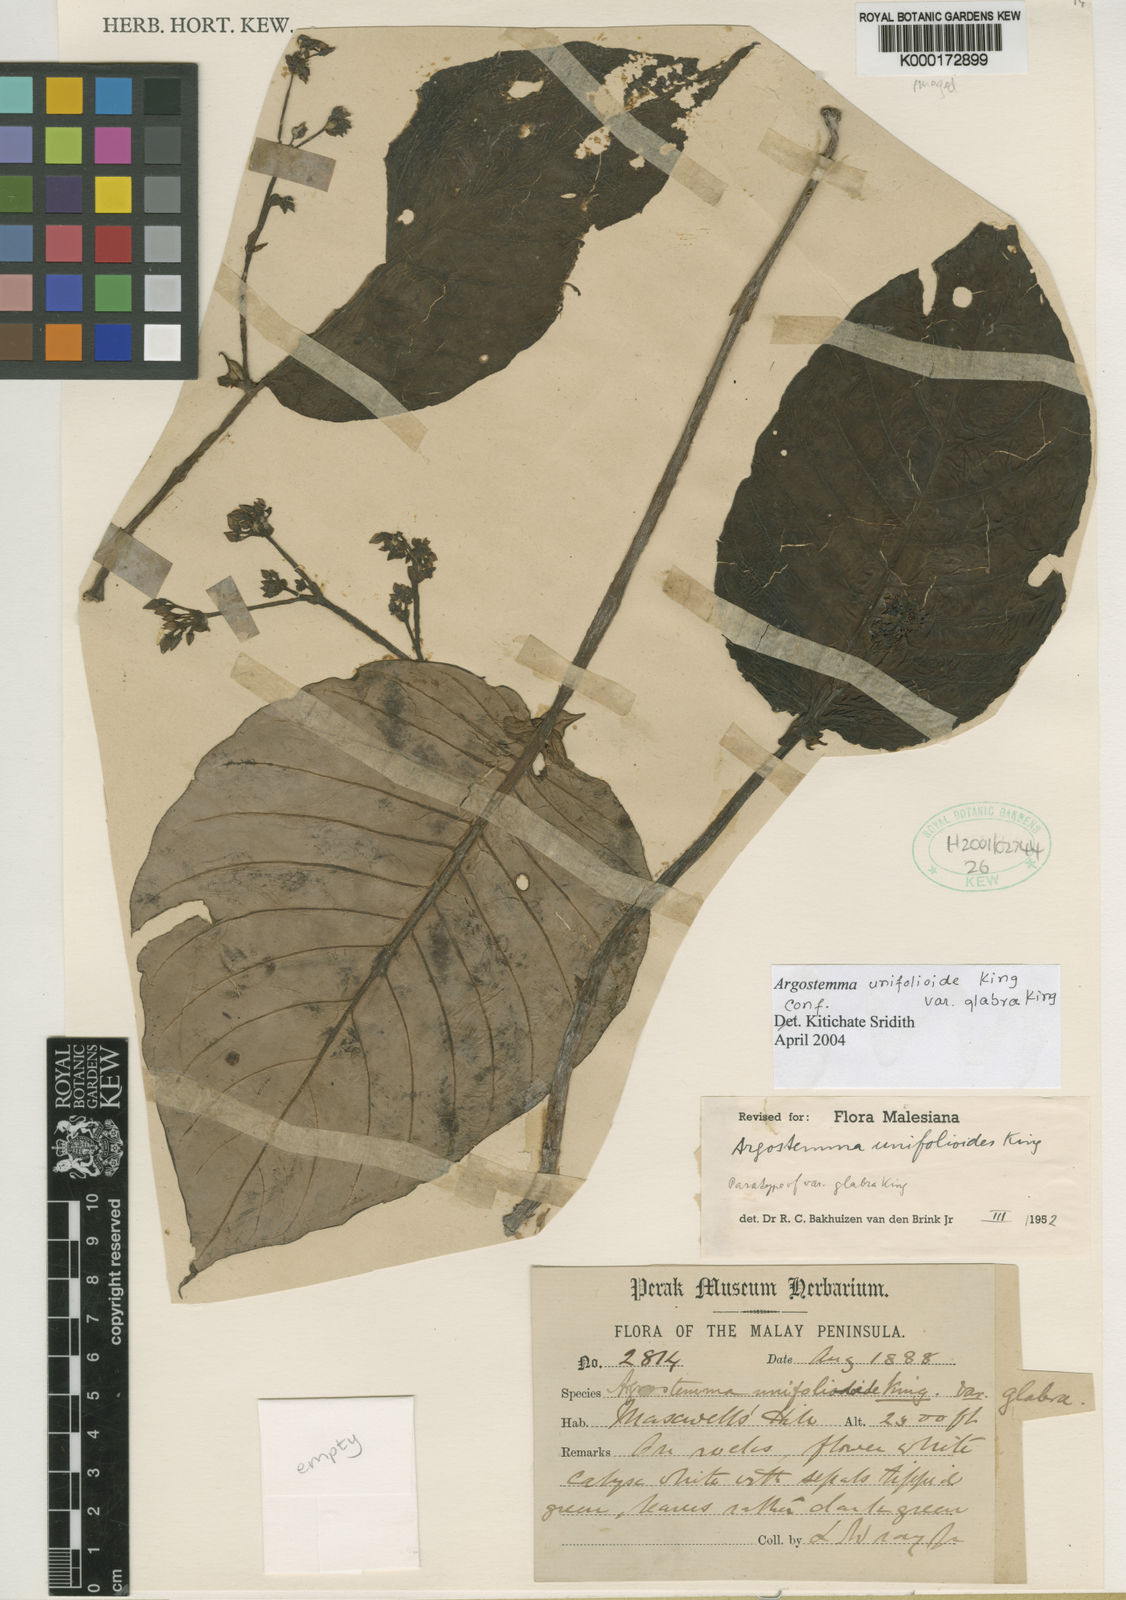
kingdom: Plantae
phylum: Tracheophyta
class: Magnoliopsida
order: Gentianales
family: Rubiaceae
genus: Argostemma
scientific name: Argostemma unifolioloides
